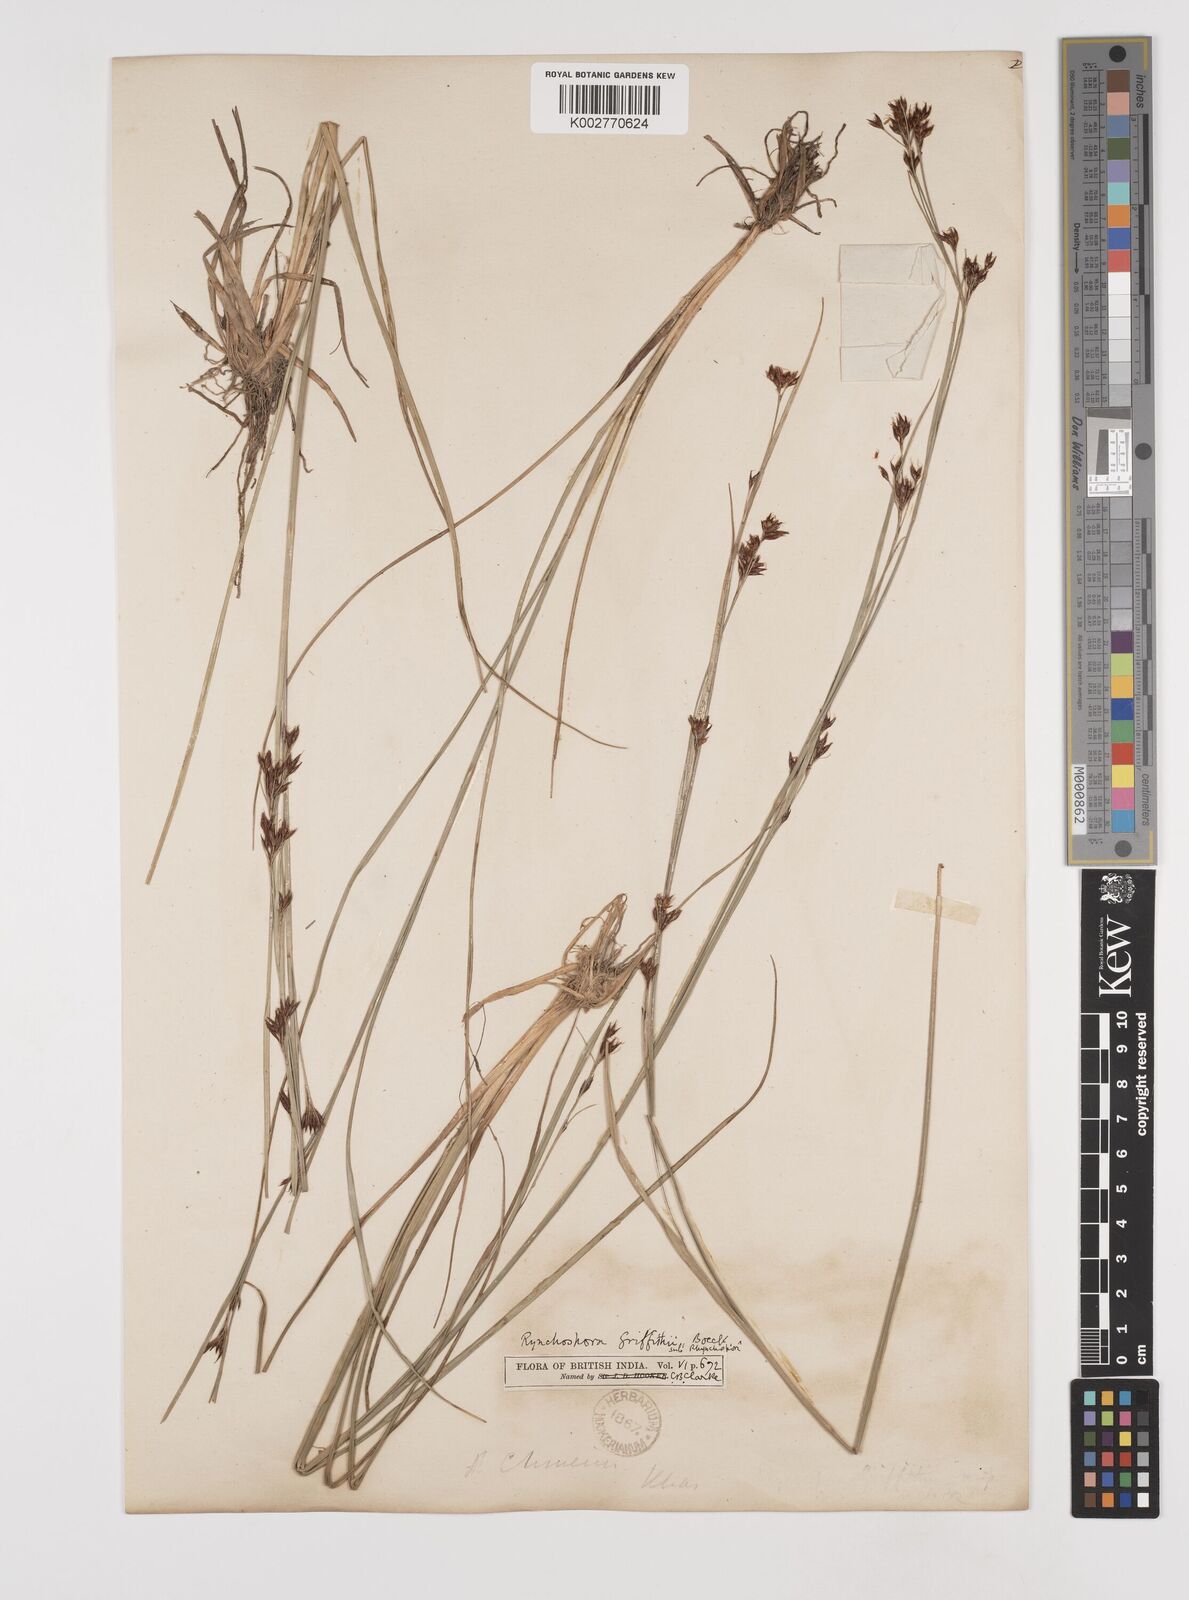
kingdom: Plantae
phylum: Tracheophyta
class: Liliopsida
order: Poales
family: Cyperaceae
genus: Rhynchospora
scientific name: Rhynchospora brownii
